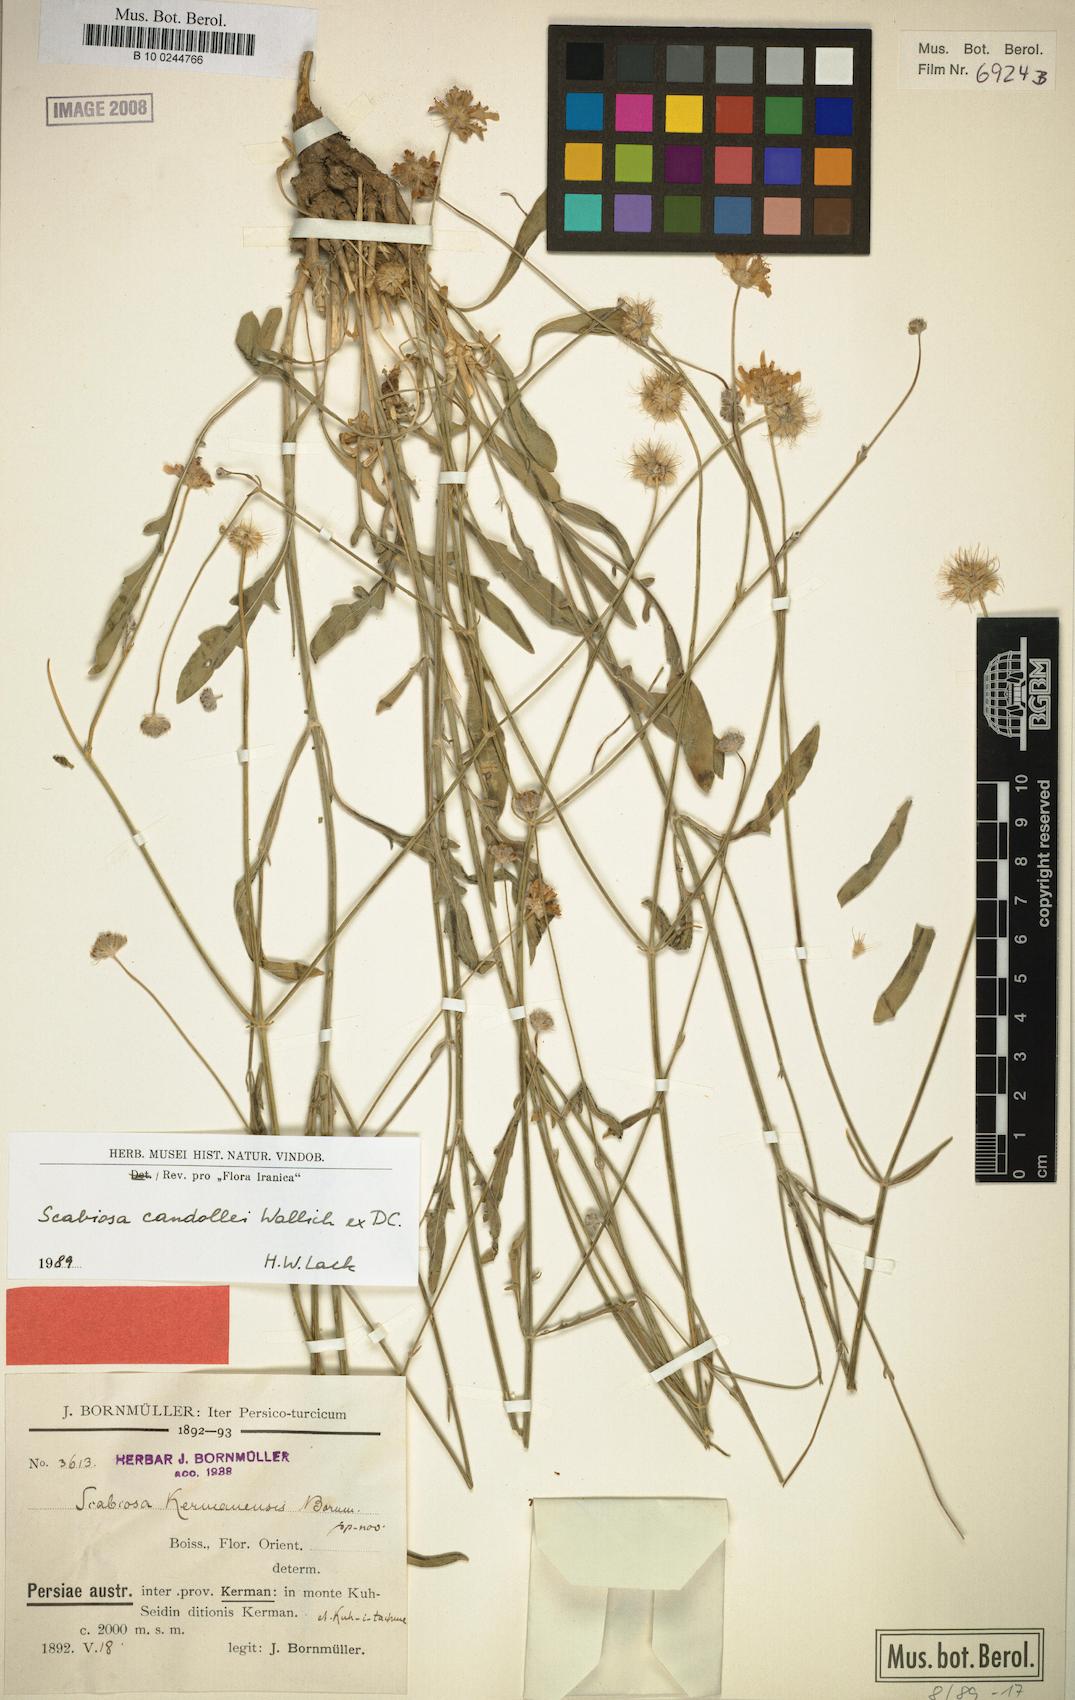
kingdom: Plantae
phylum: Tracheophyta
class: Magnoliopsida
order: Dipsacales
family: Caprifoliaceae
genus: Lomelosia
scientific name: Lomelosia candollei
